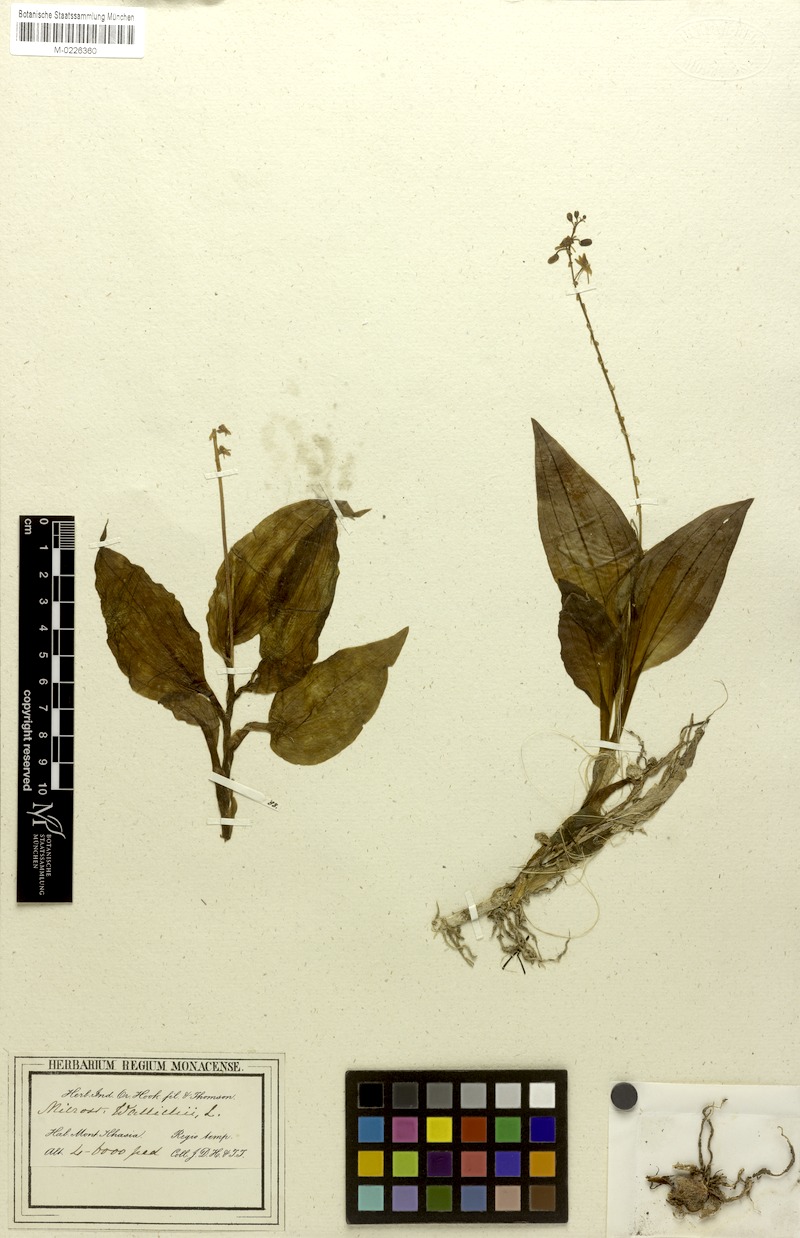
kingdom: Plantae
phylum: Tracheophyta
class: Liliopsida
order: Asparagales
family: Orchidaceae
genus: Crepidium
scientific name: Crepidium acuminatum
